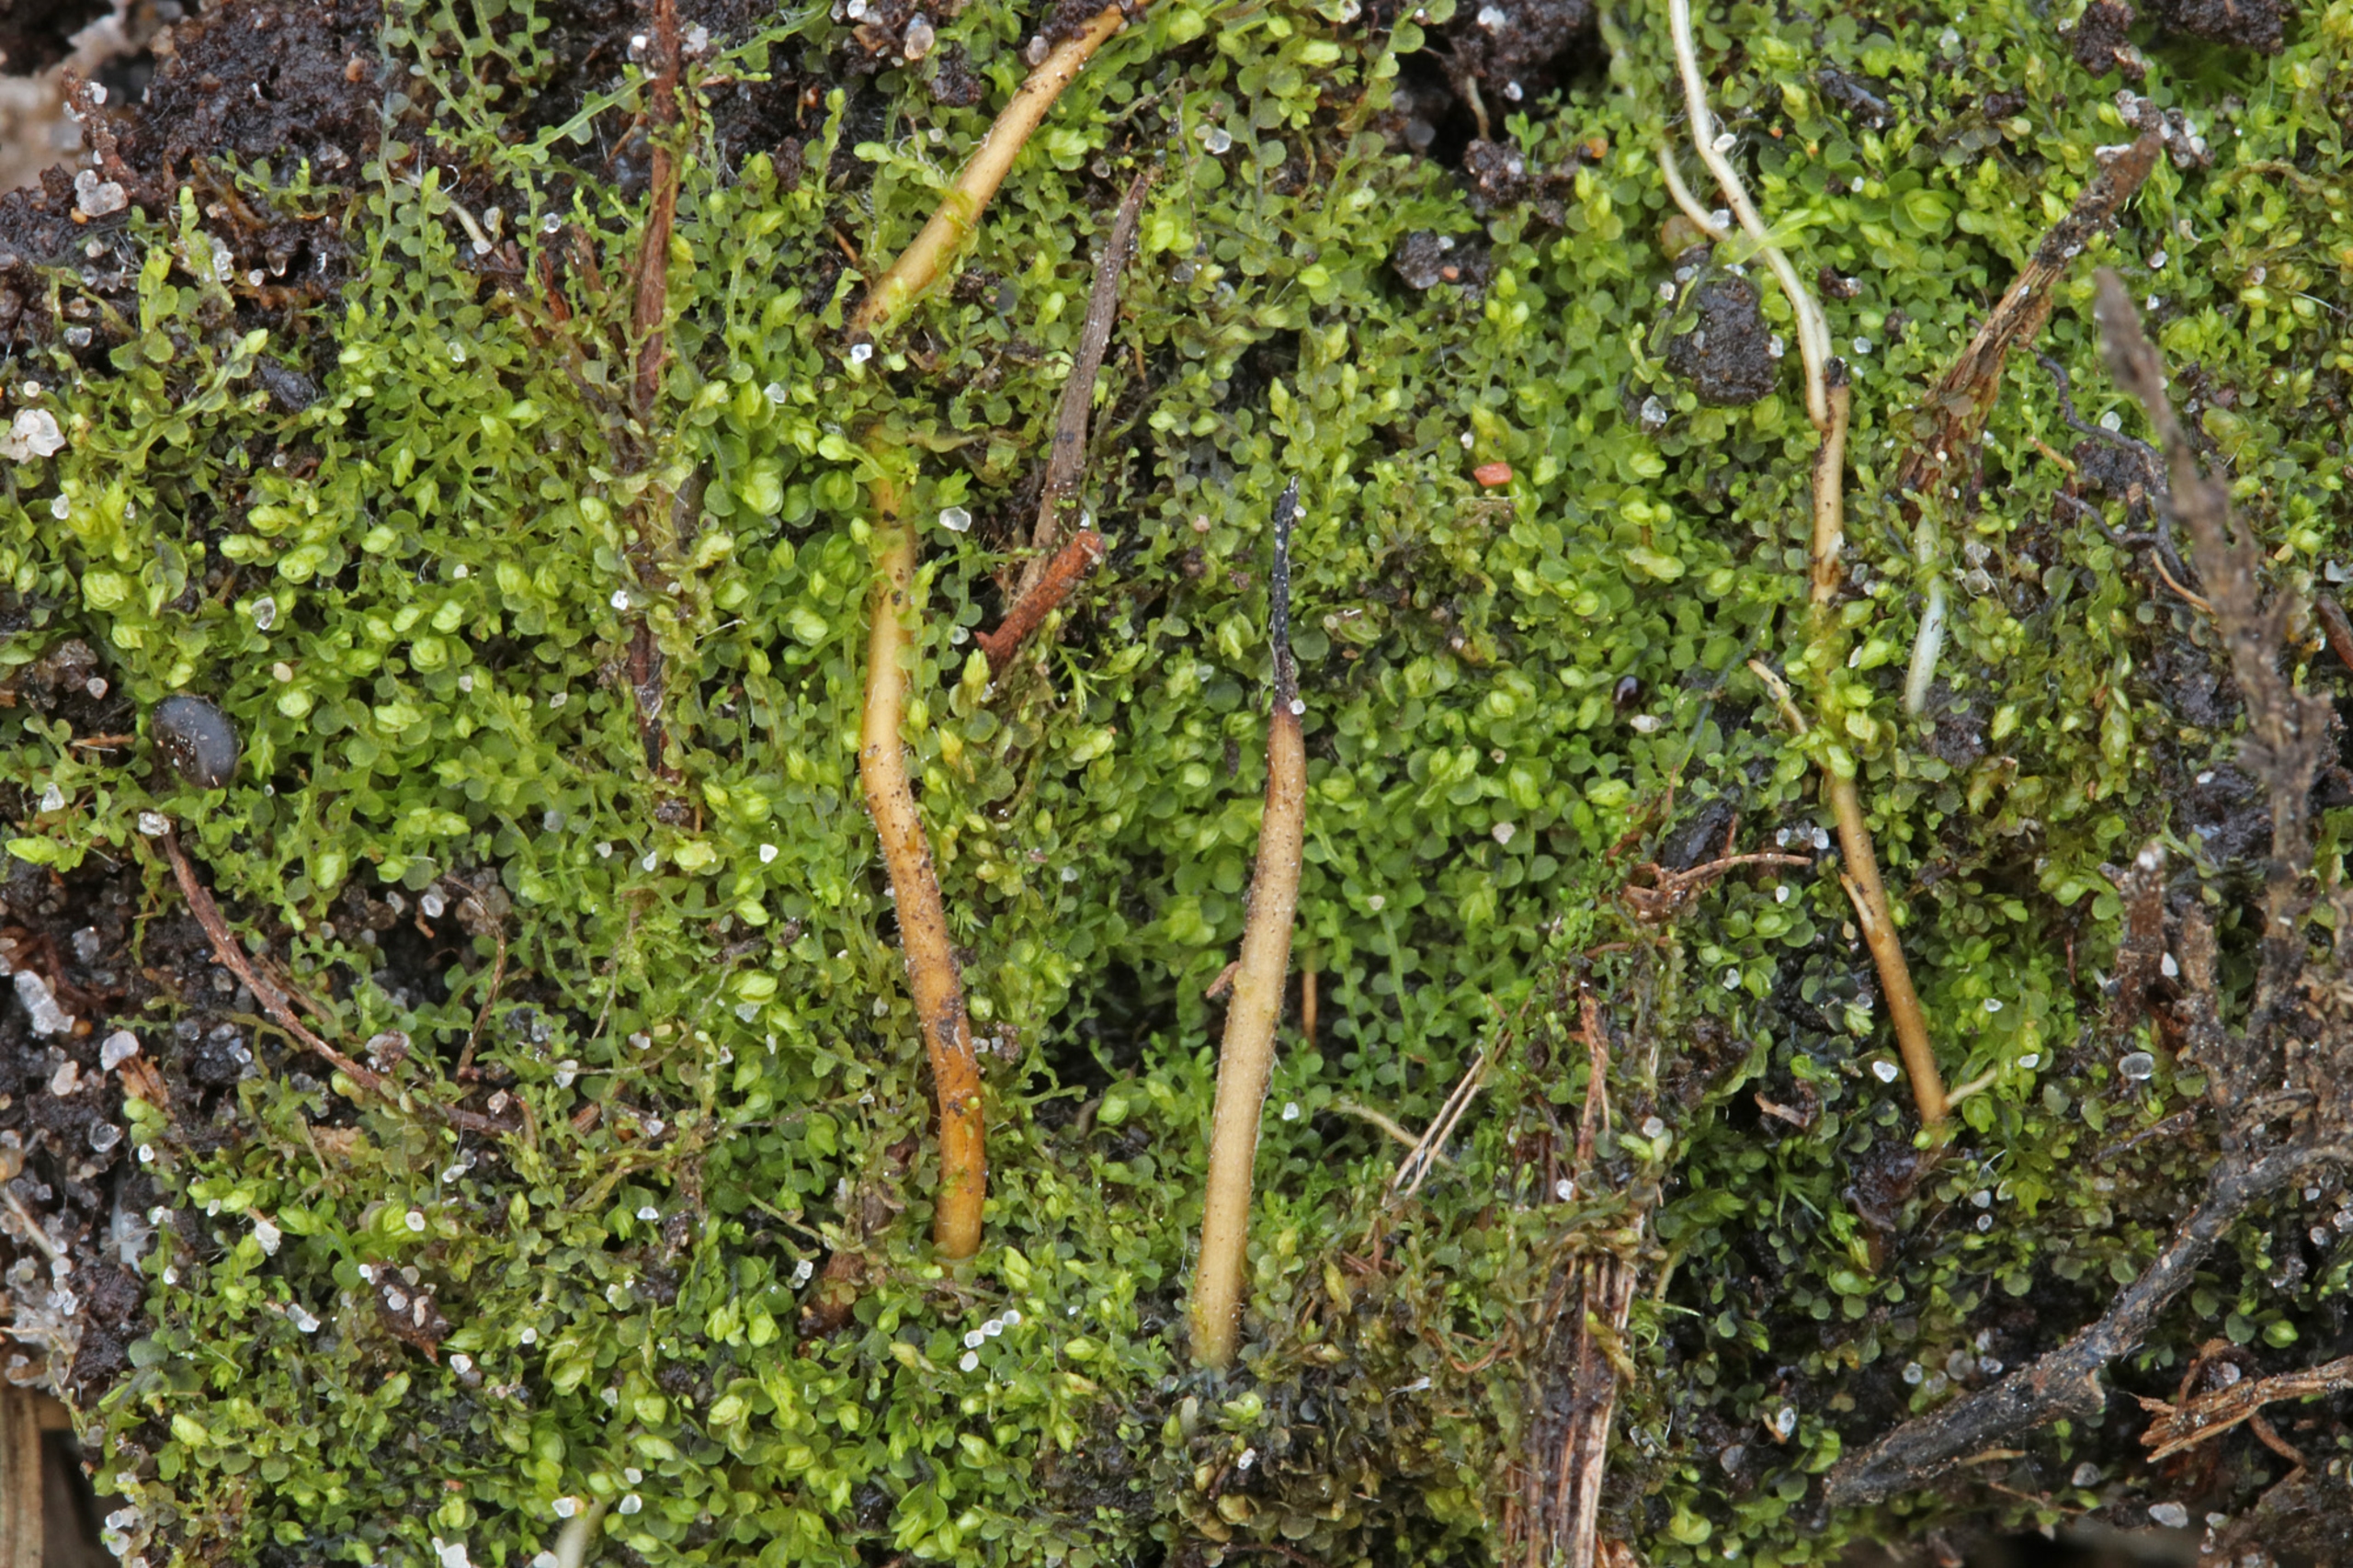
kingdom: Plantae
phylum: Marchantiophyta
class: Jungermanniopsida
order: Jungermanniales
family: Solenostomataceae
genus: Solenostoma
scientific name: Solenostoma gracillimum
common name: Vinget rørmund
